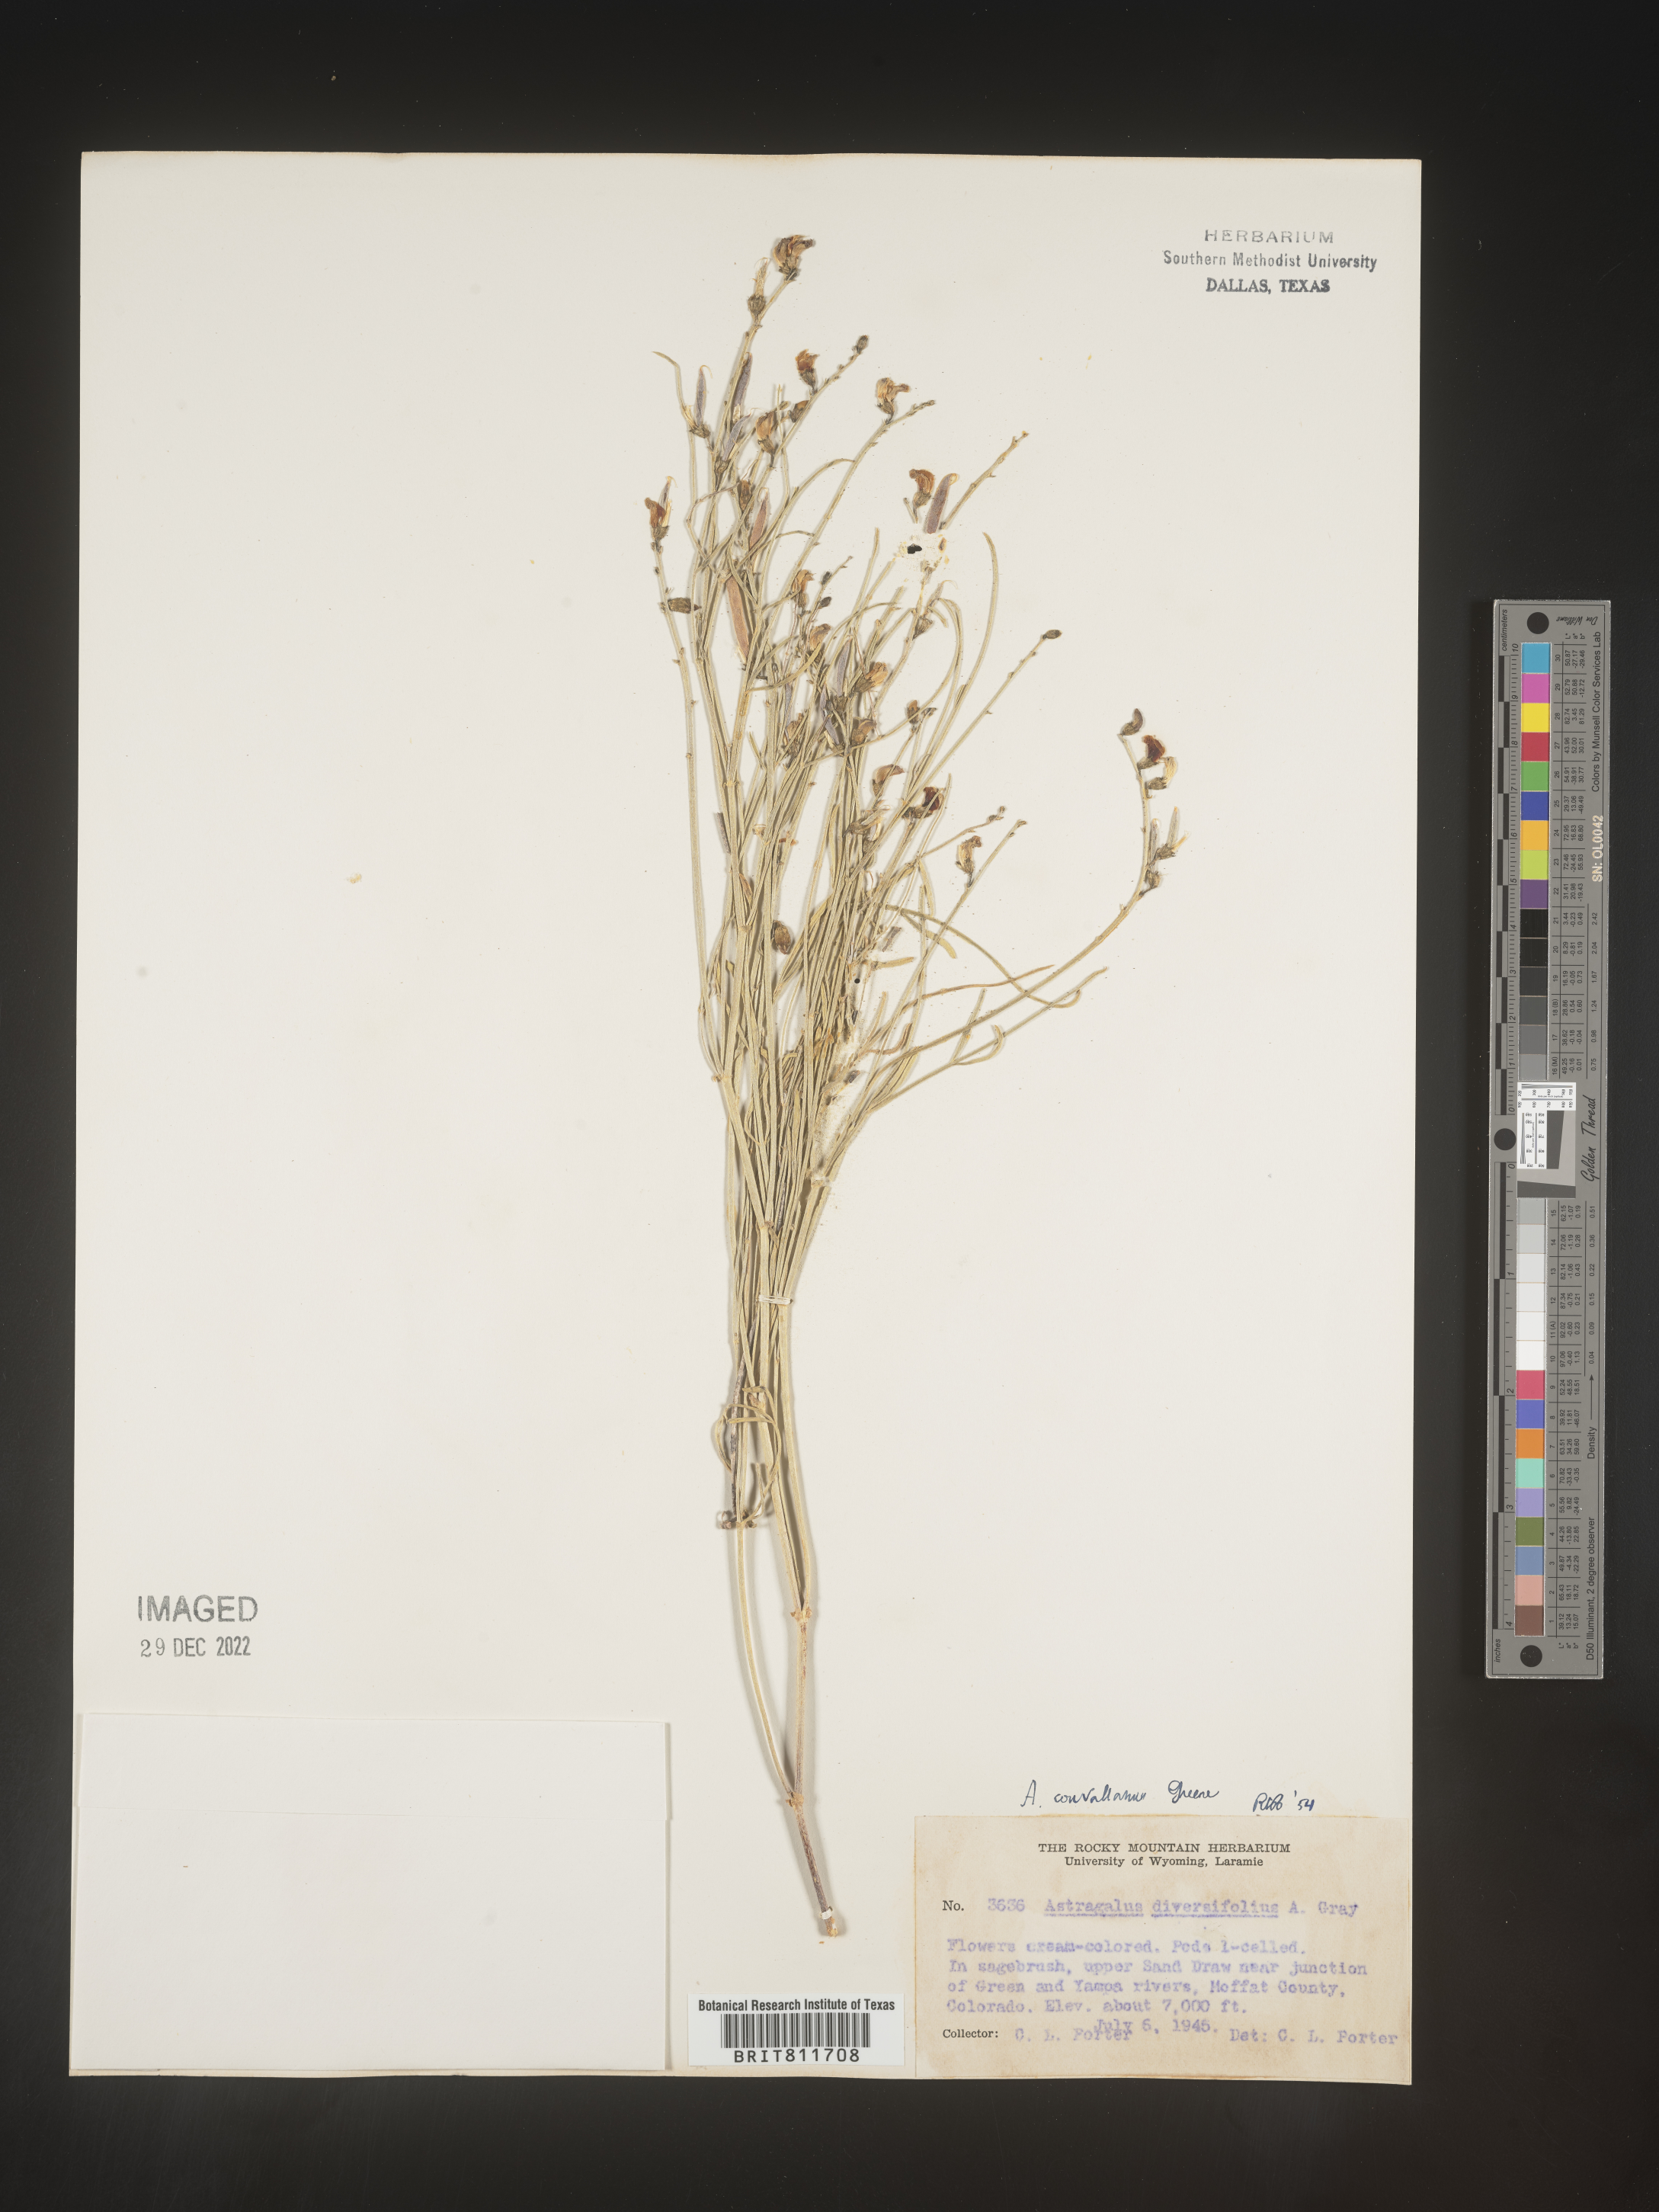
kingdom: Plantae
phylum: Tracheophyta
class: Magnoliopsida
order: Fabales
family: Fabaceae
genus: Astragalus
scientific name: Astragalus convallarius
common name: Lesser rushy milk-vetch
